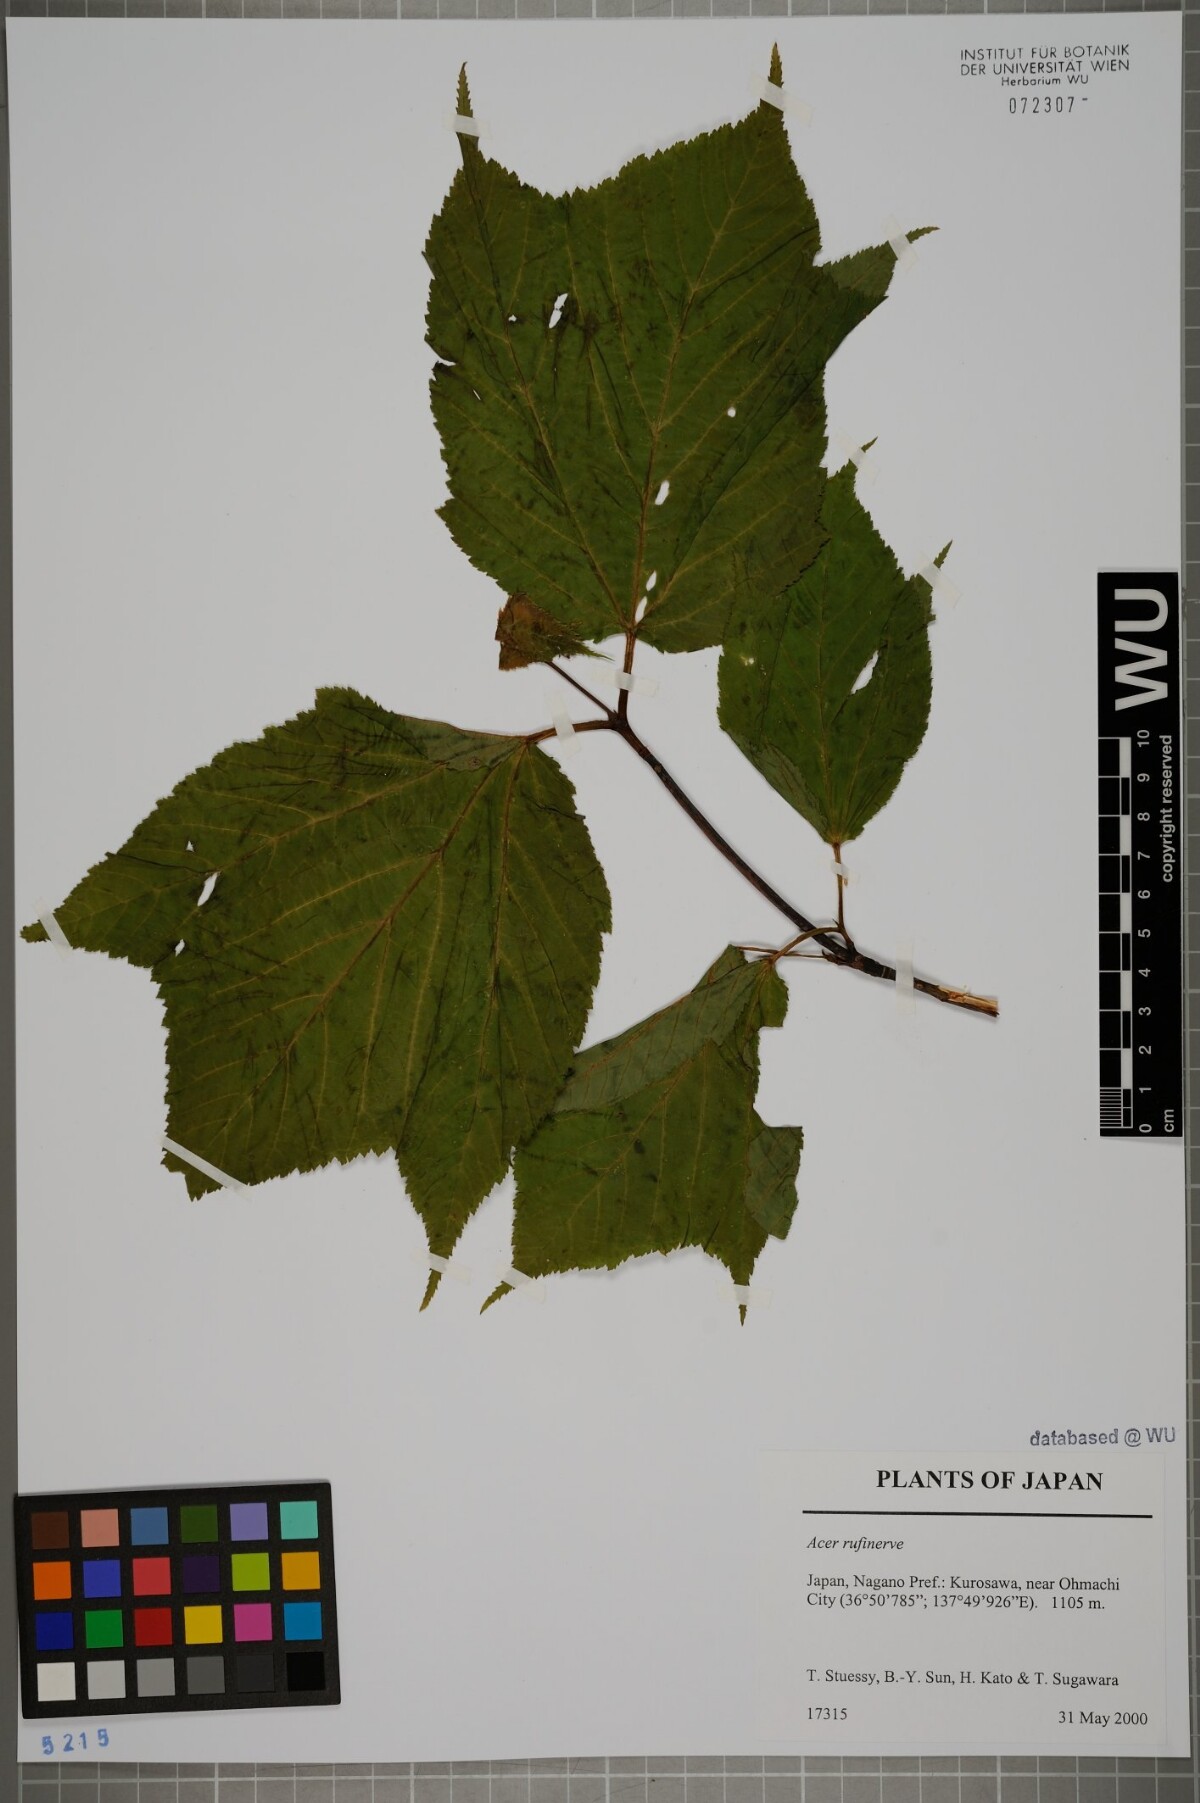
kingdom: Plantae
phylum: Tracheophyta
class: Magnoliopsida
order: Sapindales
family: Sapindaceae
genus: Acer
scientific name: Acer rufinerve
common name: Red veined maple
